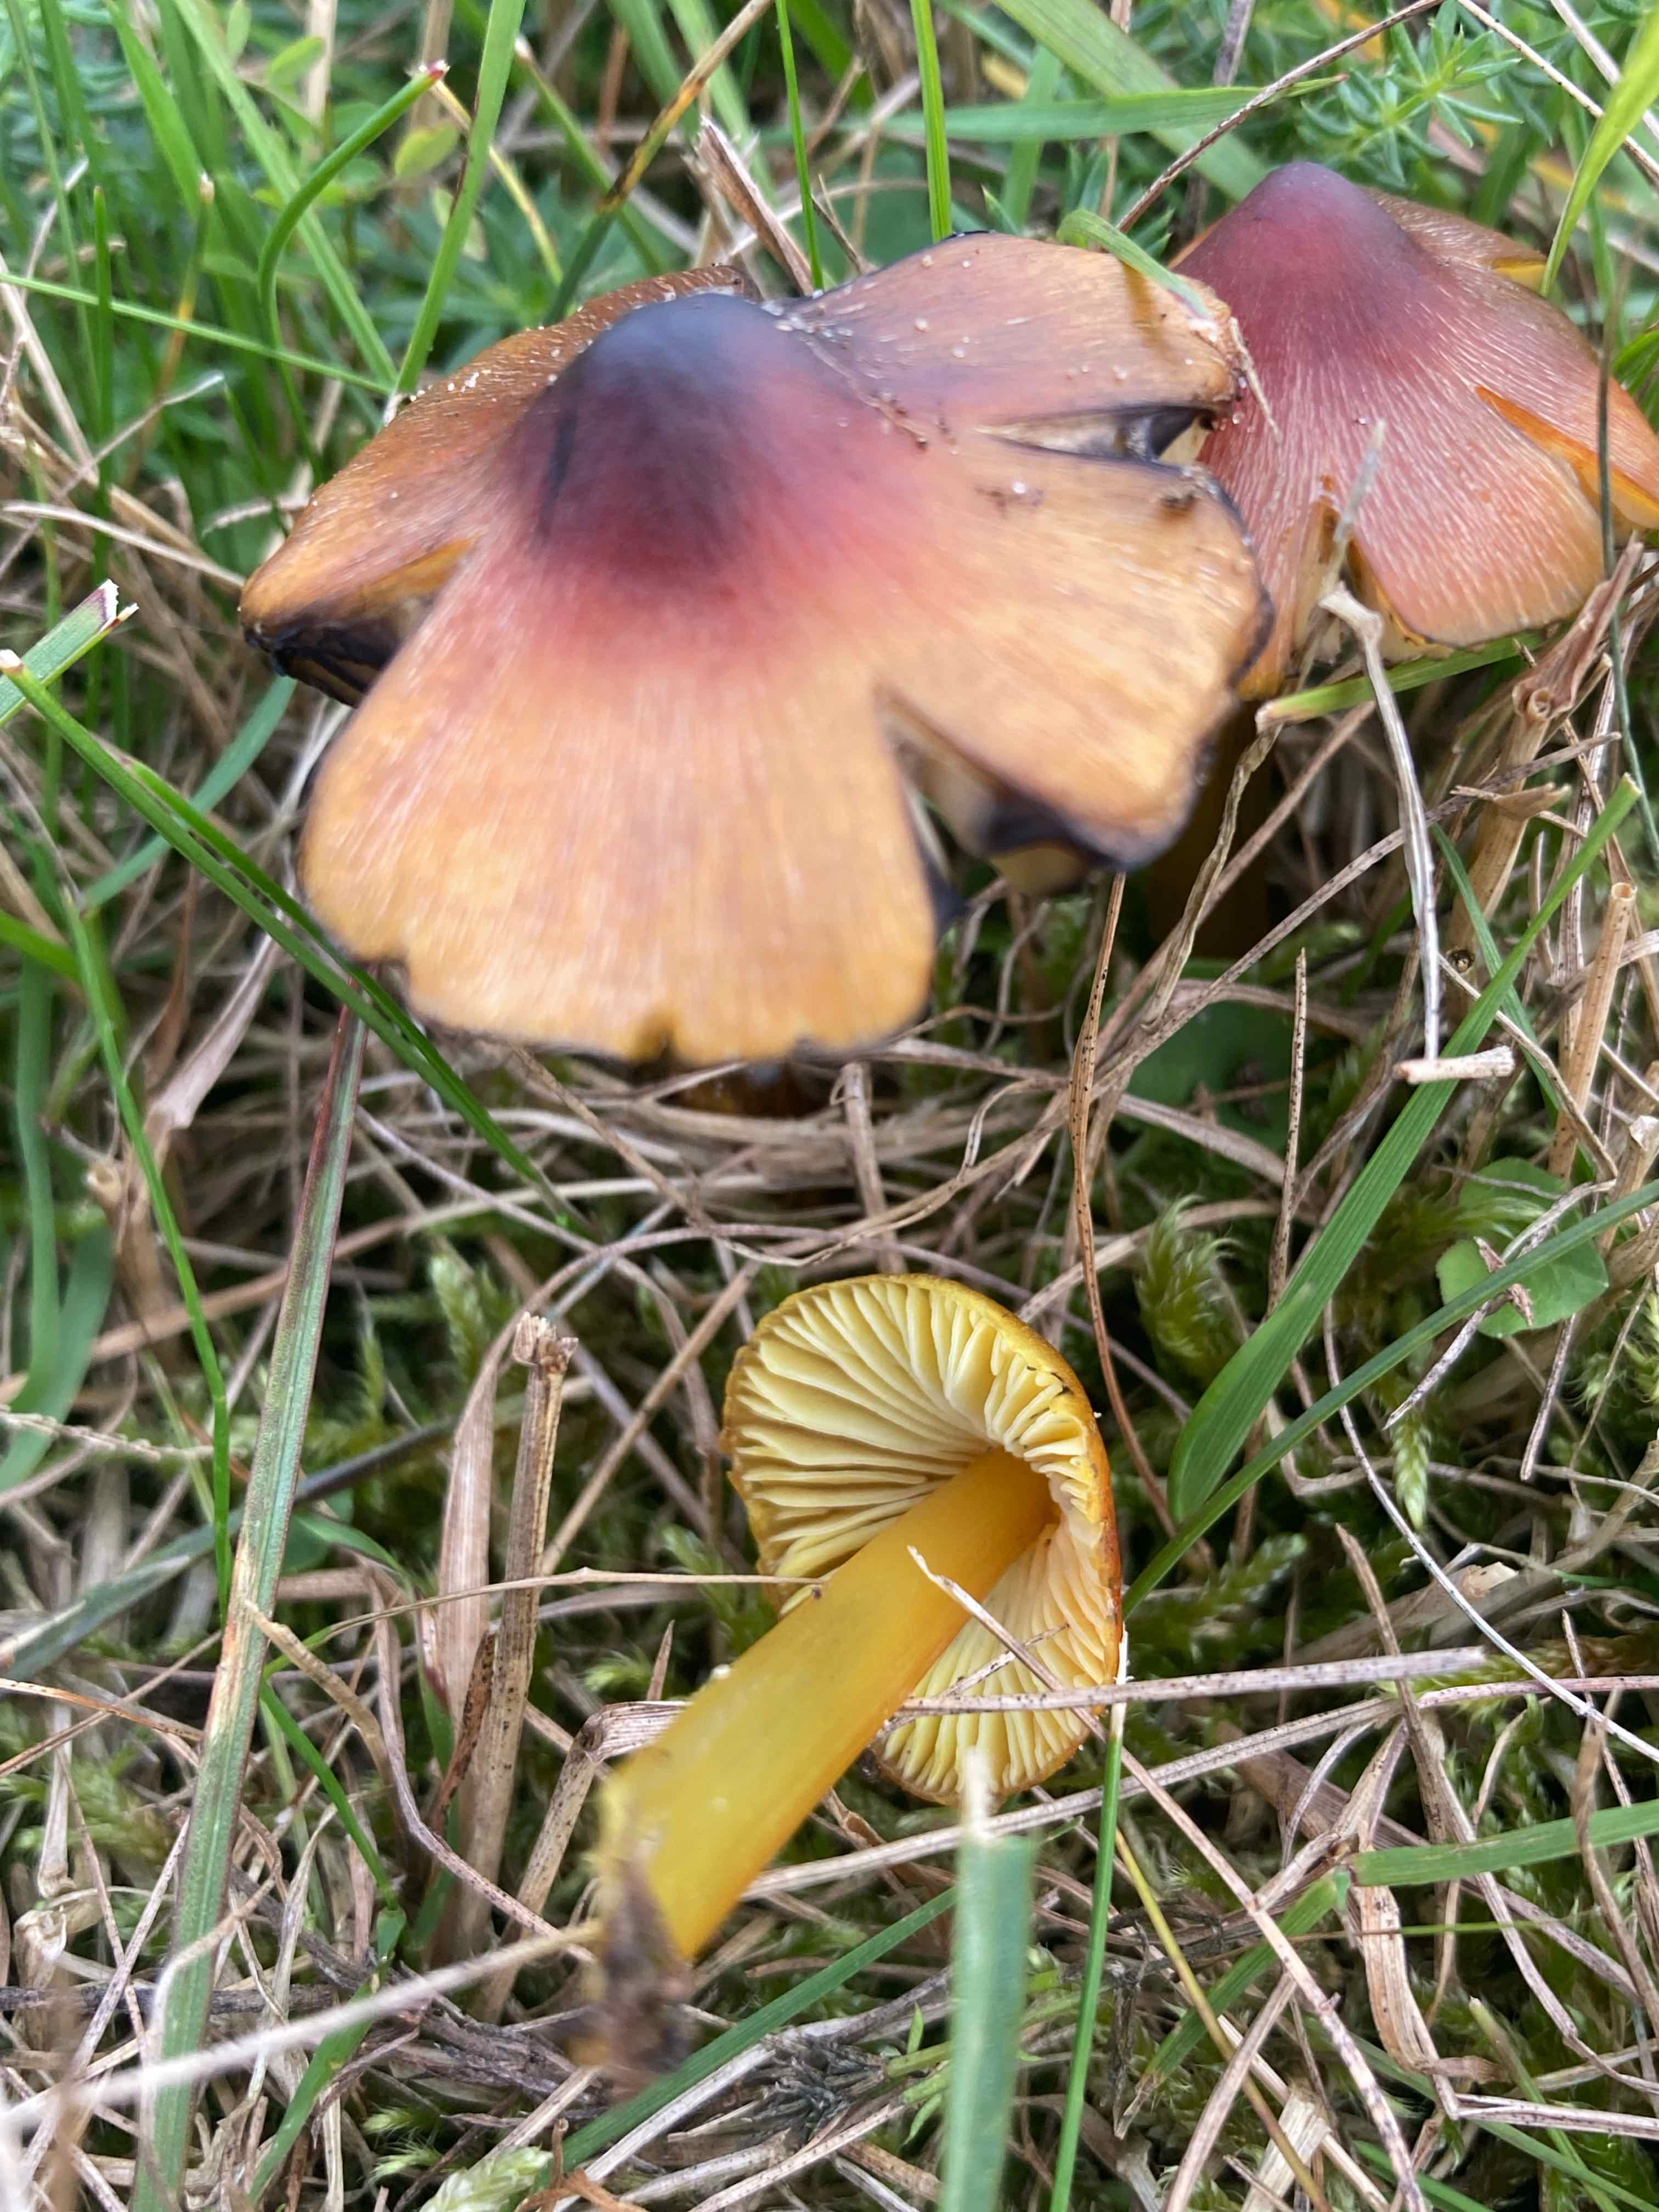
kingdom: Fungi
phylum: Basidiomycota
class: Agaricomycetes
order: Agaricales
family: Hygrophoraceae
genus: Hygrocybe
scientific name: Hygrocybe conica
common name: kegle-vokshat
